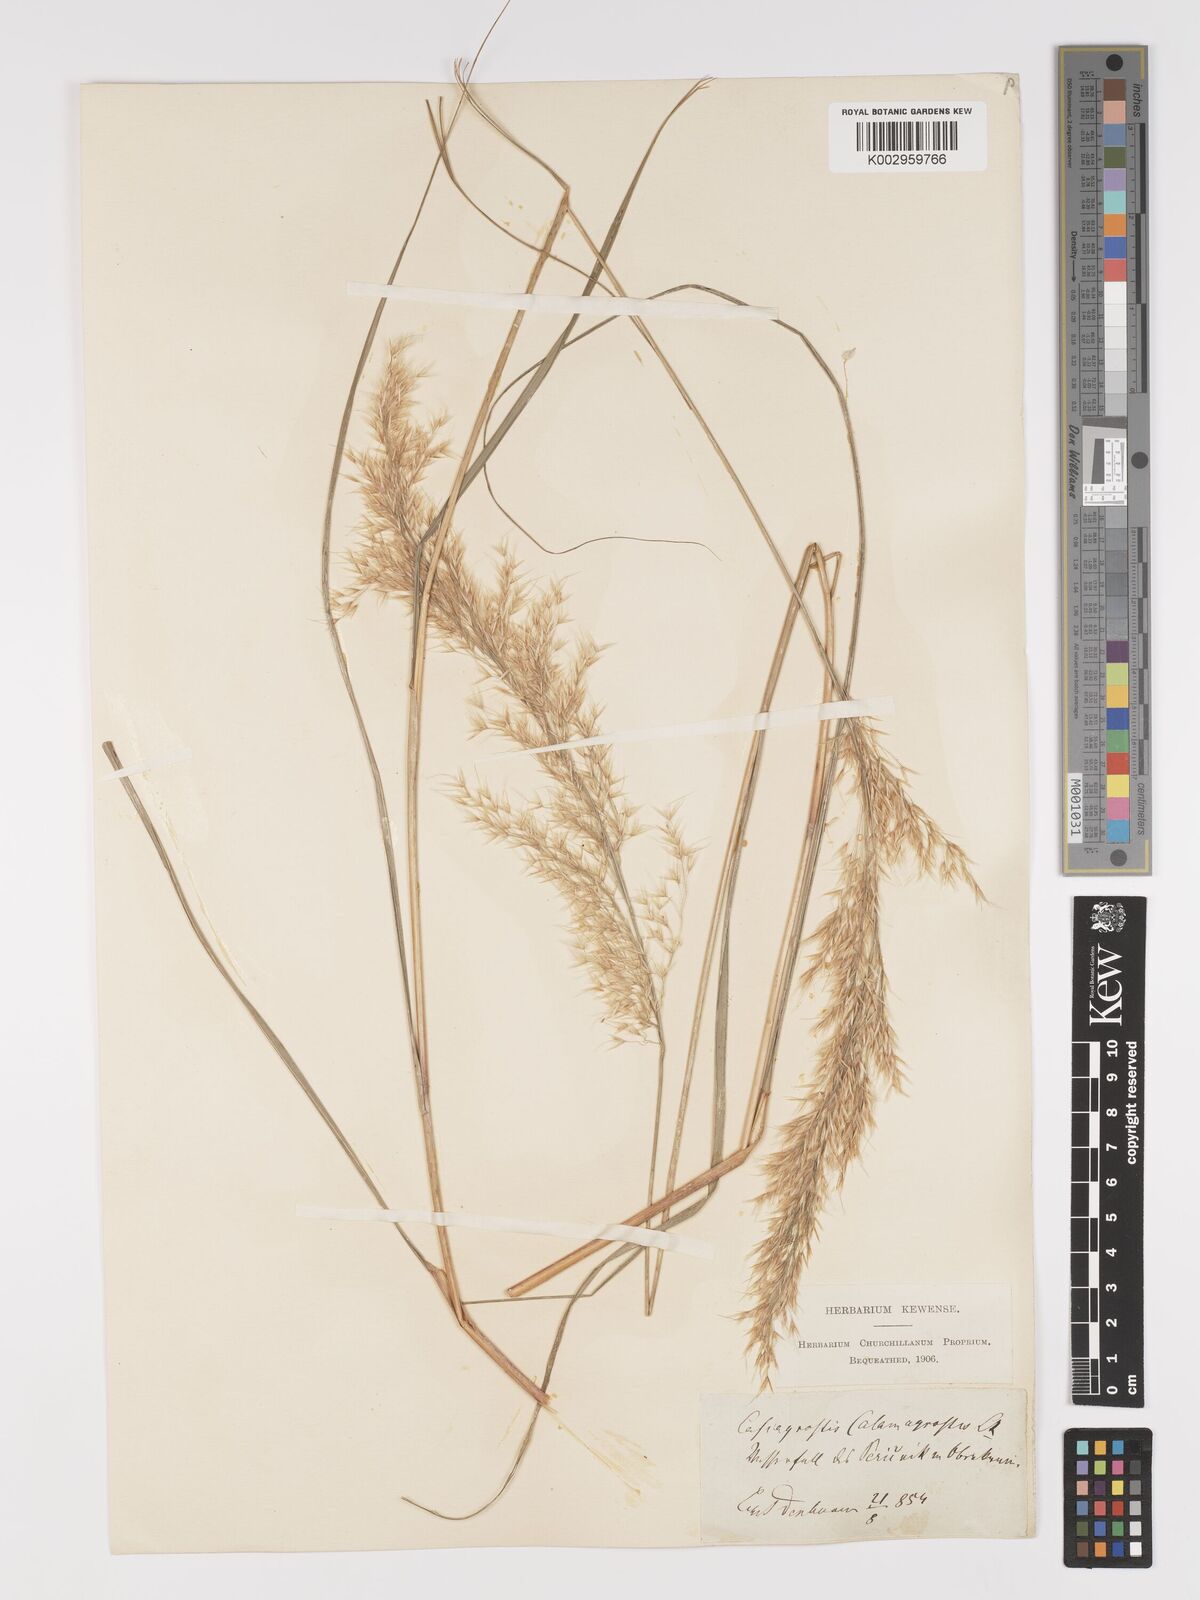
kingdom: Plantae
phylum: Tracheophyta
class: Liliopsida
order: Poales
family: Poaceae
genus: Achnatherum
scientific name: Achnatherum calamagrostis
